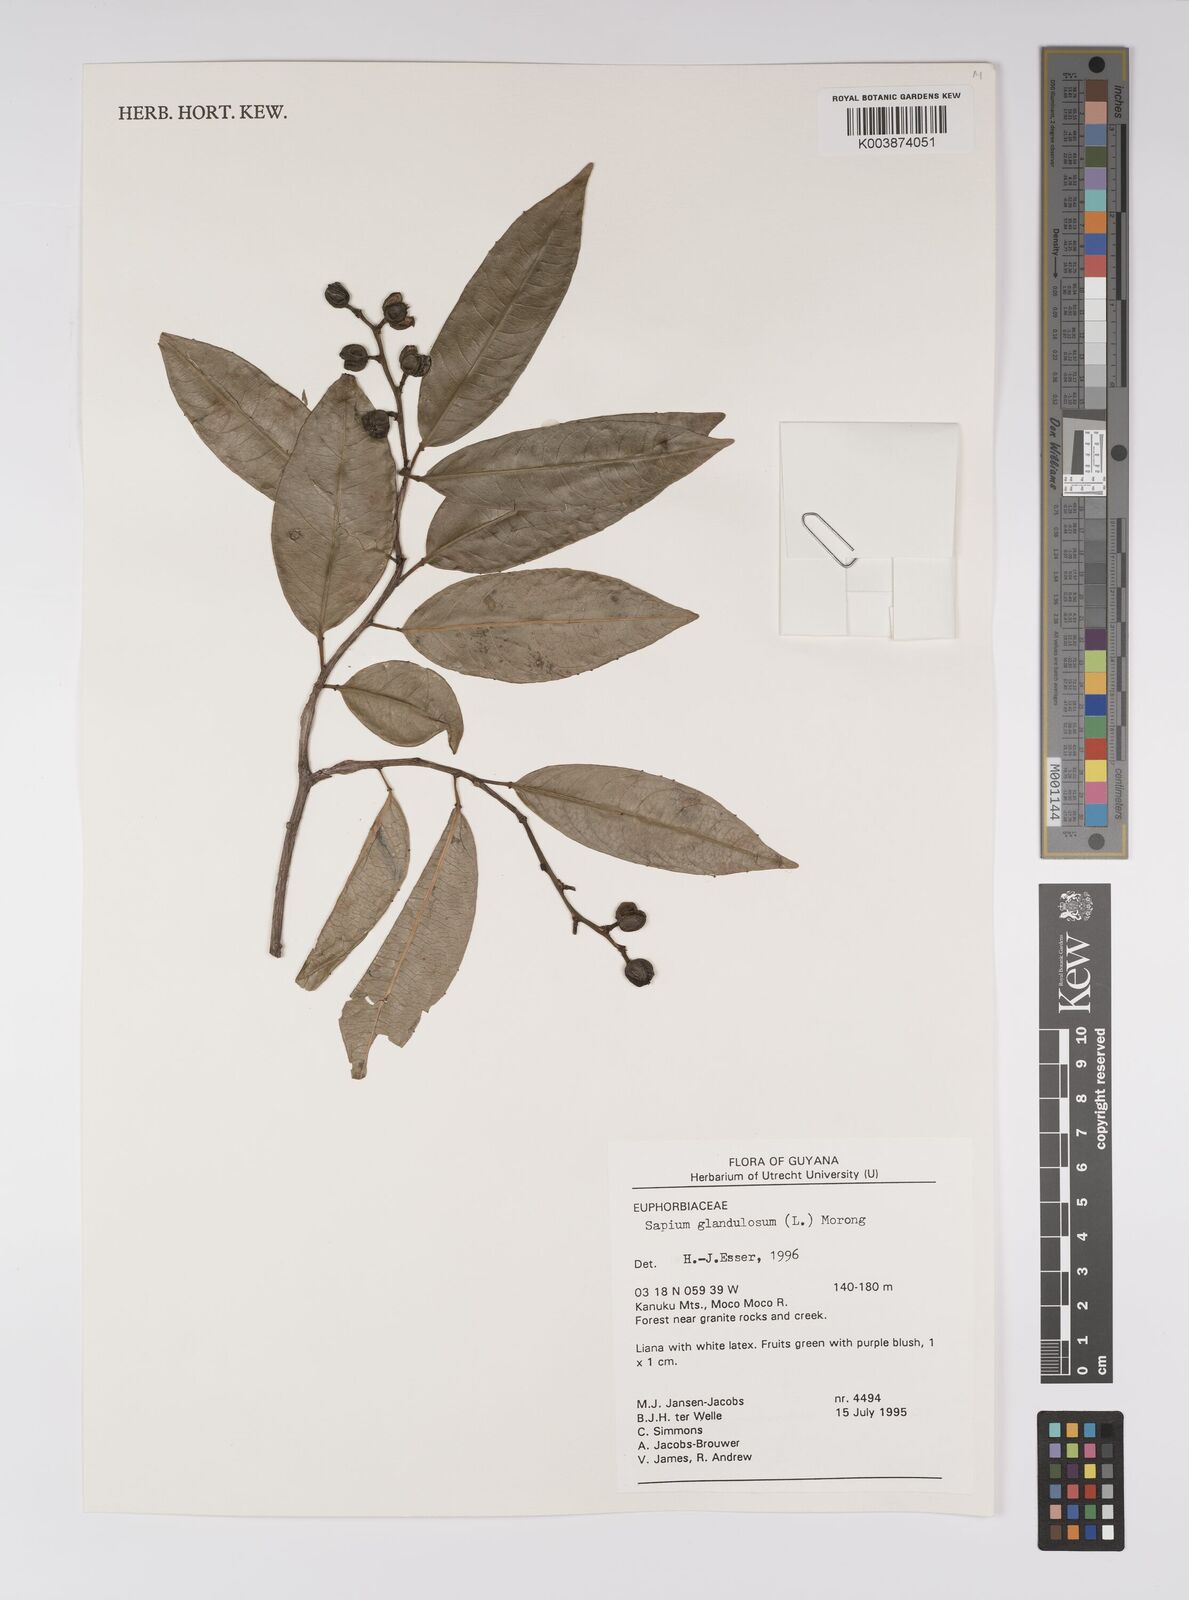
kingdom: Plantae
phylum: Tracheophyta
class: Magnoliopsida
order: Malpighiales
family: Euphorbiaceae
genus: Sapium
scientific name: Sapium glandulosum
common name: Milktree
